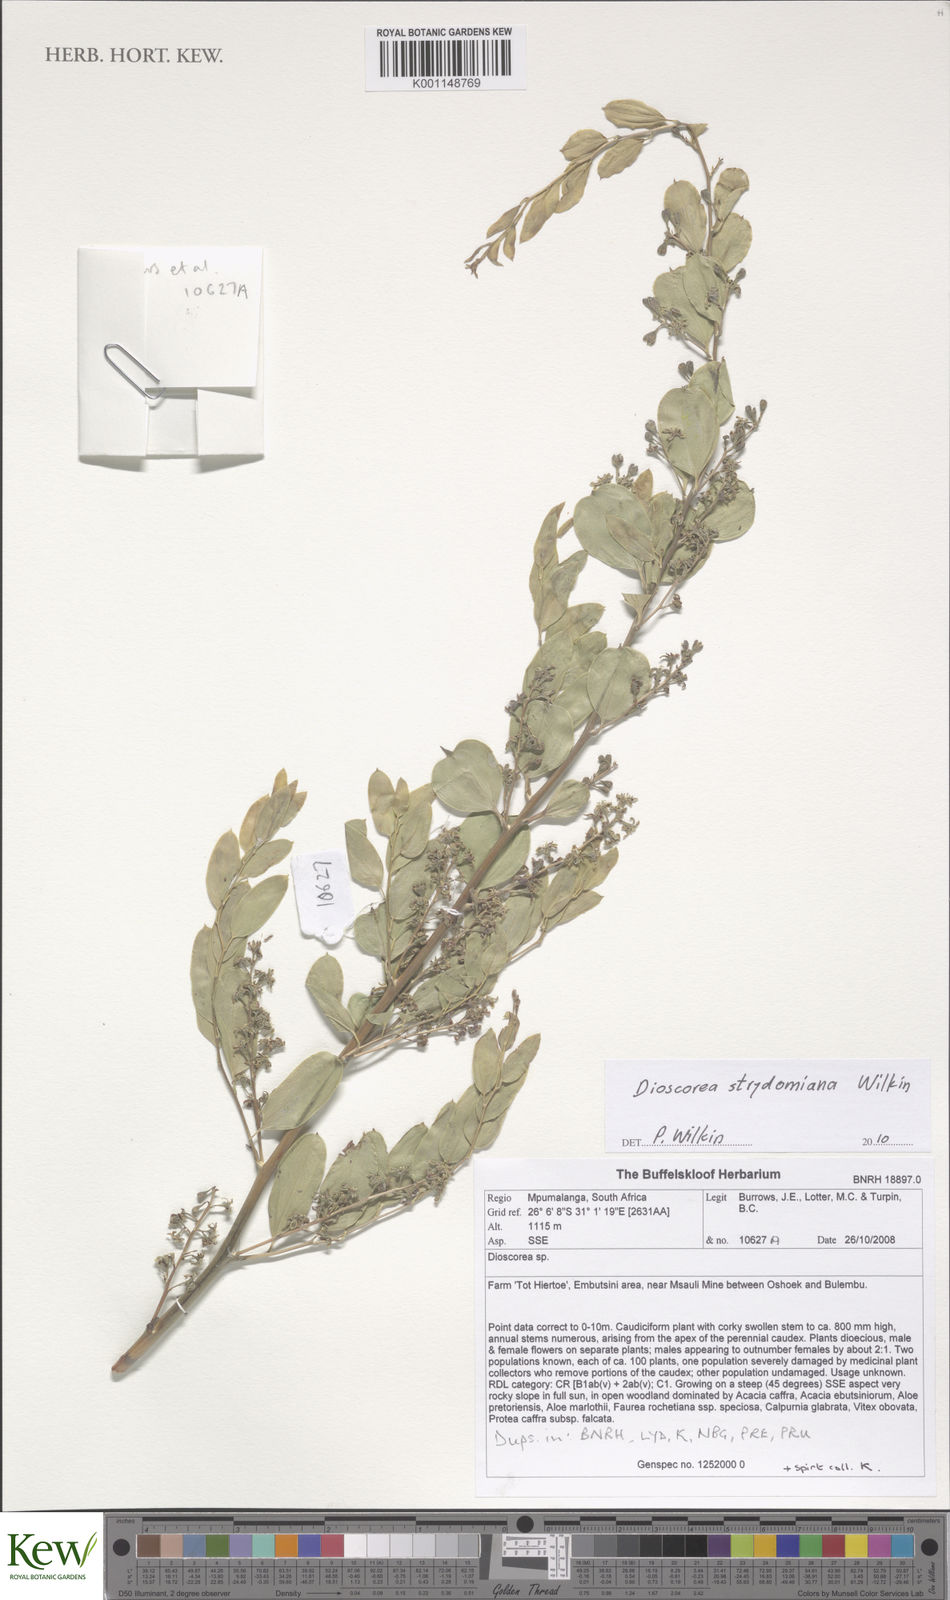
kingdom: Plantae
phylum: Tracheophyta
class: Liliopsida
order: Dioscoreales
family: Dioscoreaceae
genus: Dioscorea
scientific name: Dioscorea strydomiana
